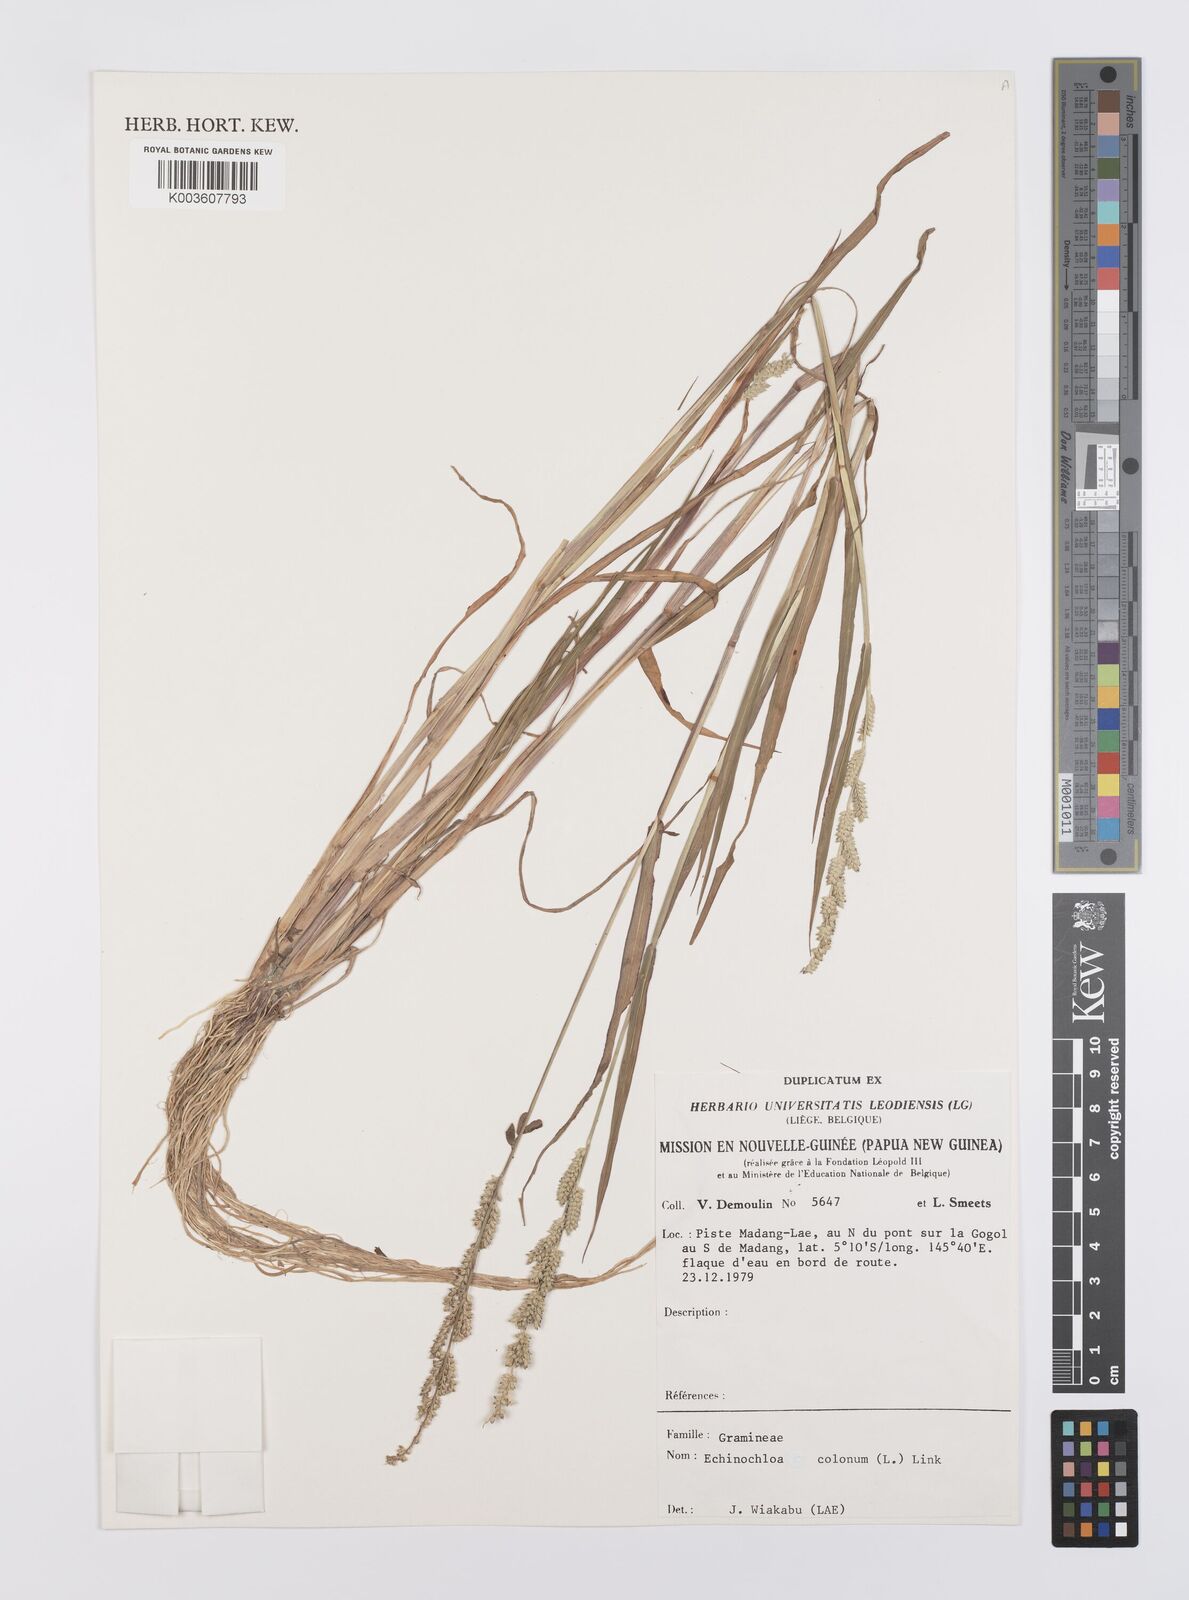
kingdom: Plantae
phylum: Tracheophyta
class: Liliopsida
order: Poales
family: Poaceae
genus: Echinochloa
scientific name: Echinochloa colonum
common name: Jungle rice
